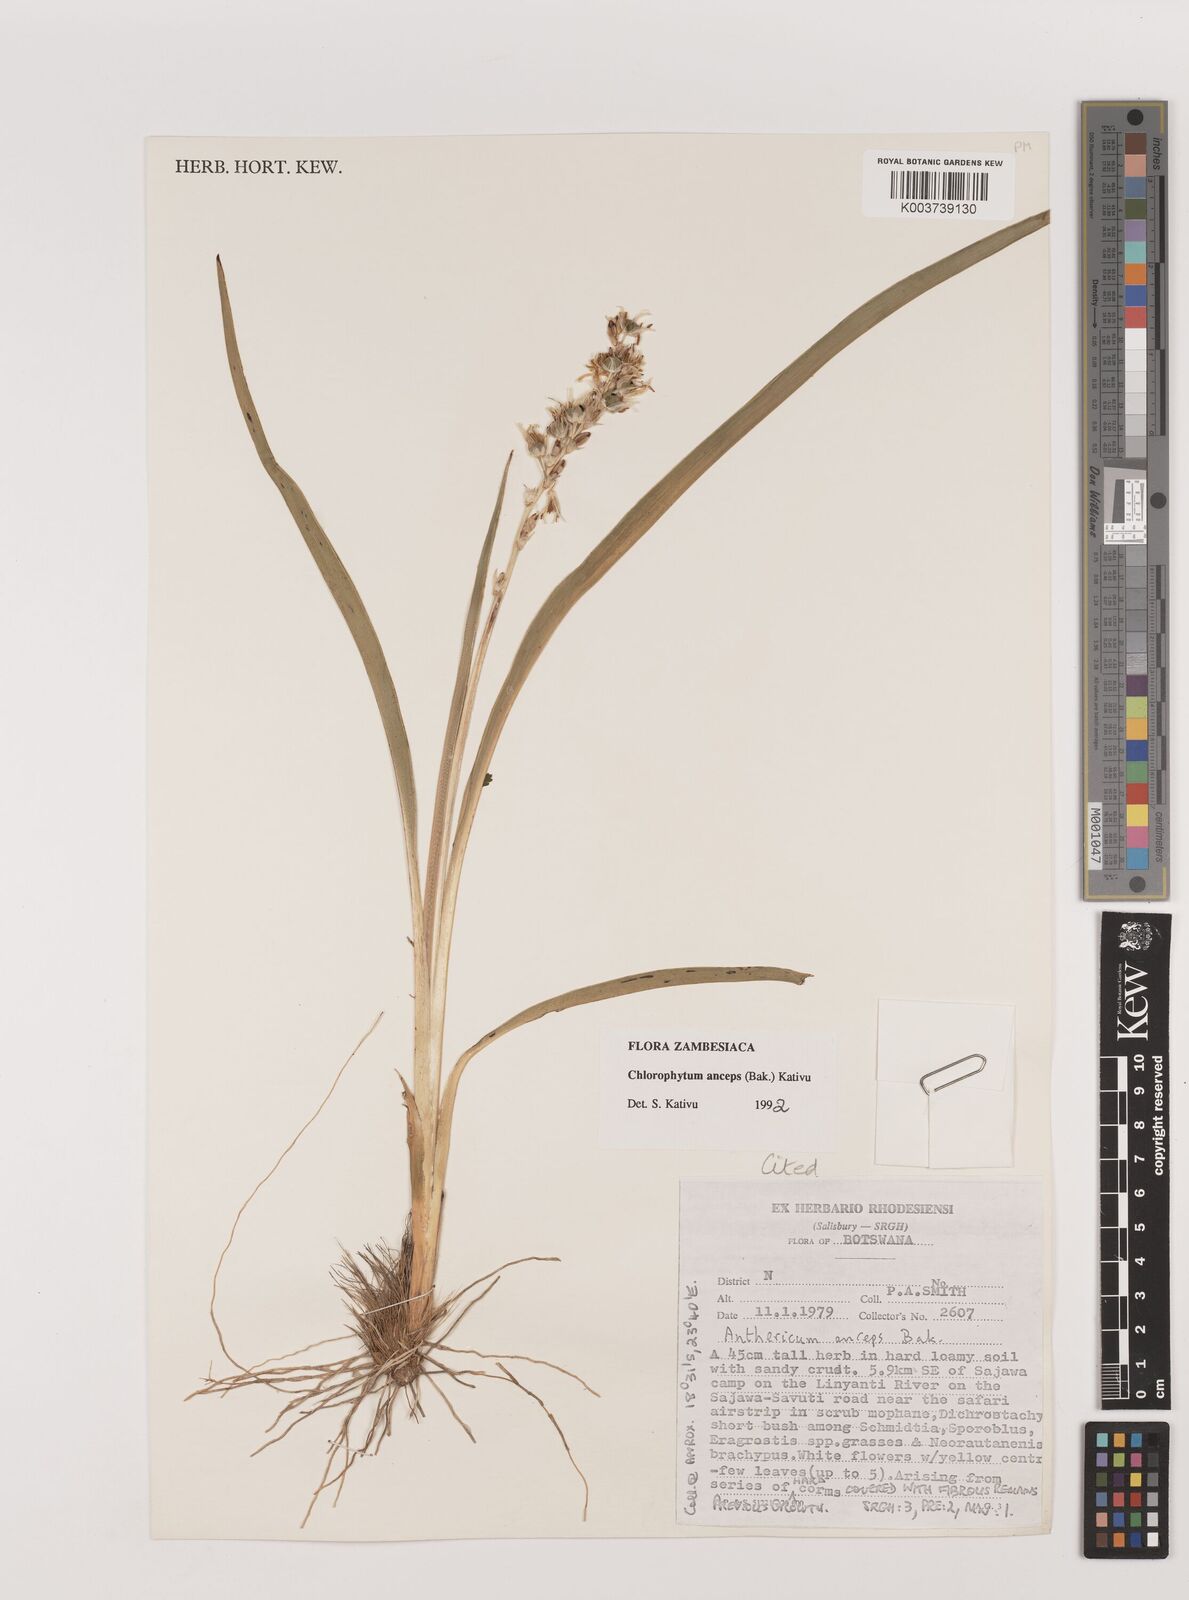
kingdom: Plantae
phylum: Tracheophyta
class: Liliopsida
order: Asparagales
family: Asparagaceae
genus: Chlorophytum
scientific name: Chlorophytum anceps
